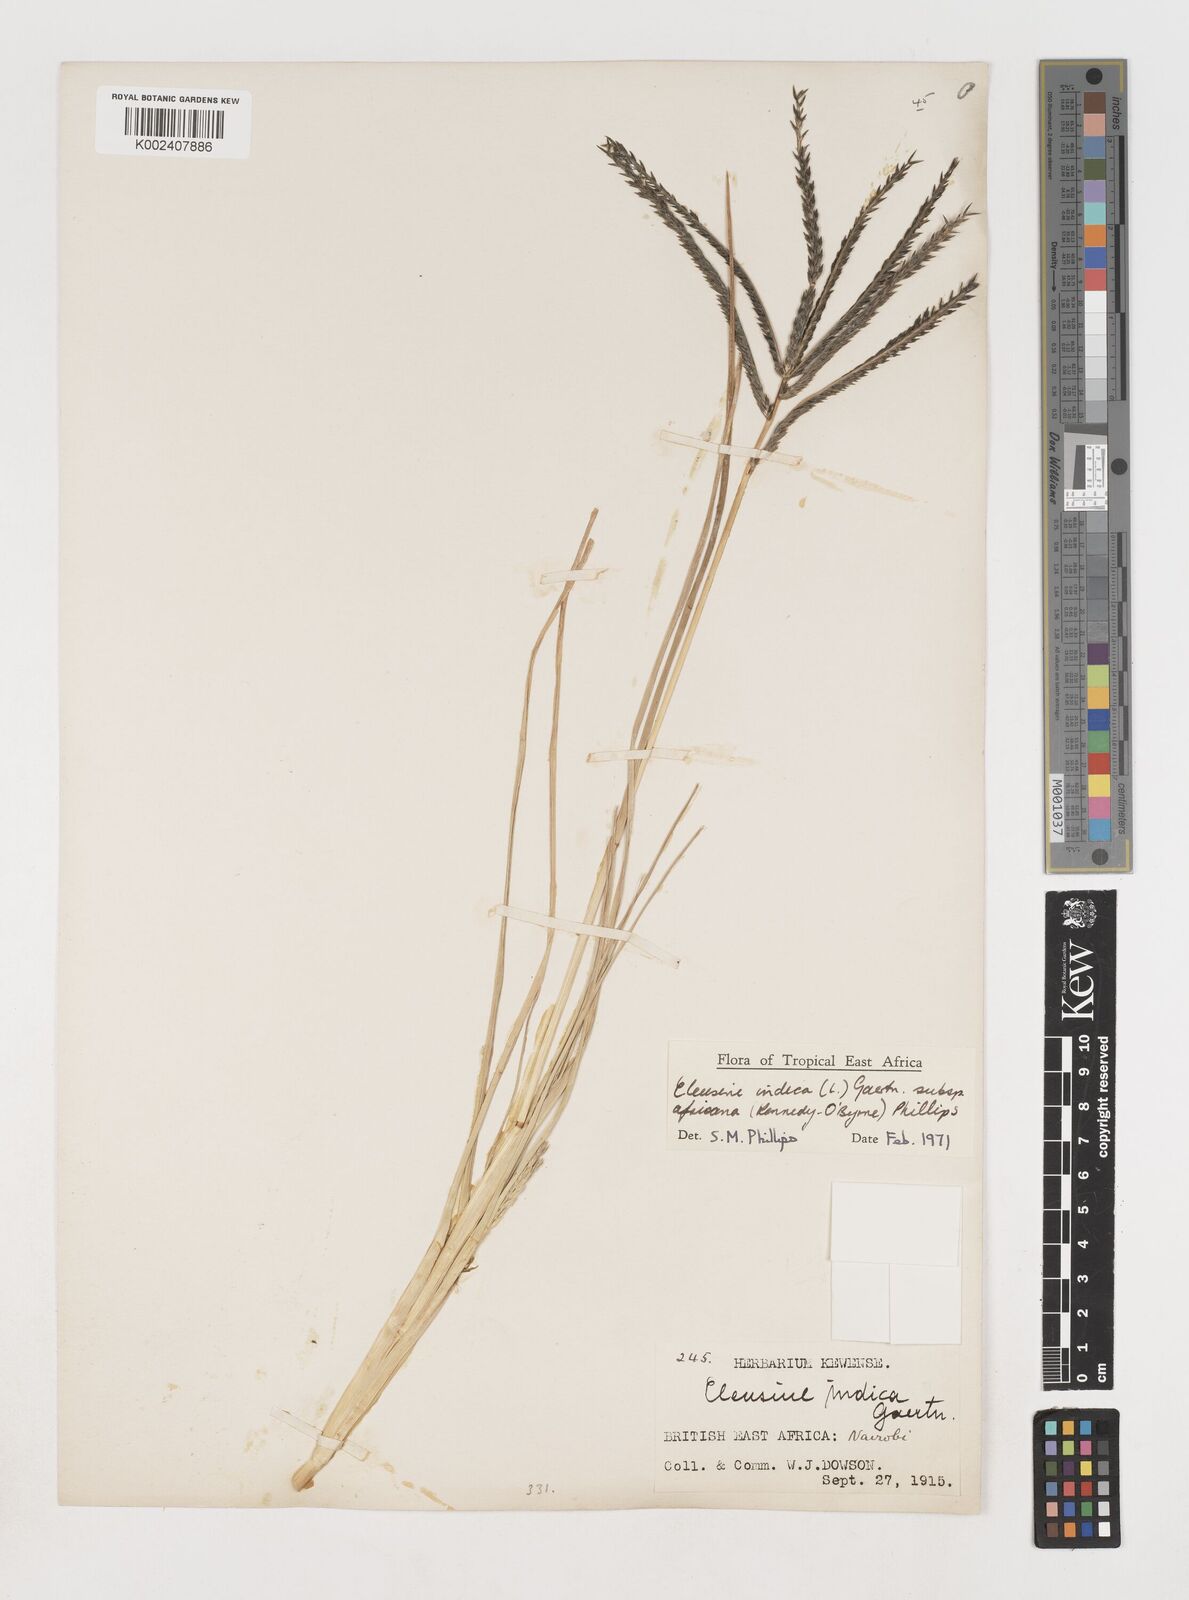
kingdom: Plantae
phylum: Tracheophyta
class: Liliopsida
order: Poales
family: Poaceae
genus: Eleusine
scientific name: Eleusine africana
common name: Wild african finger millet
